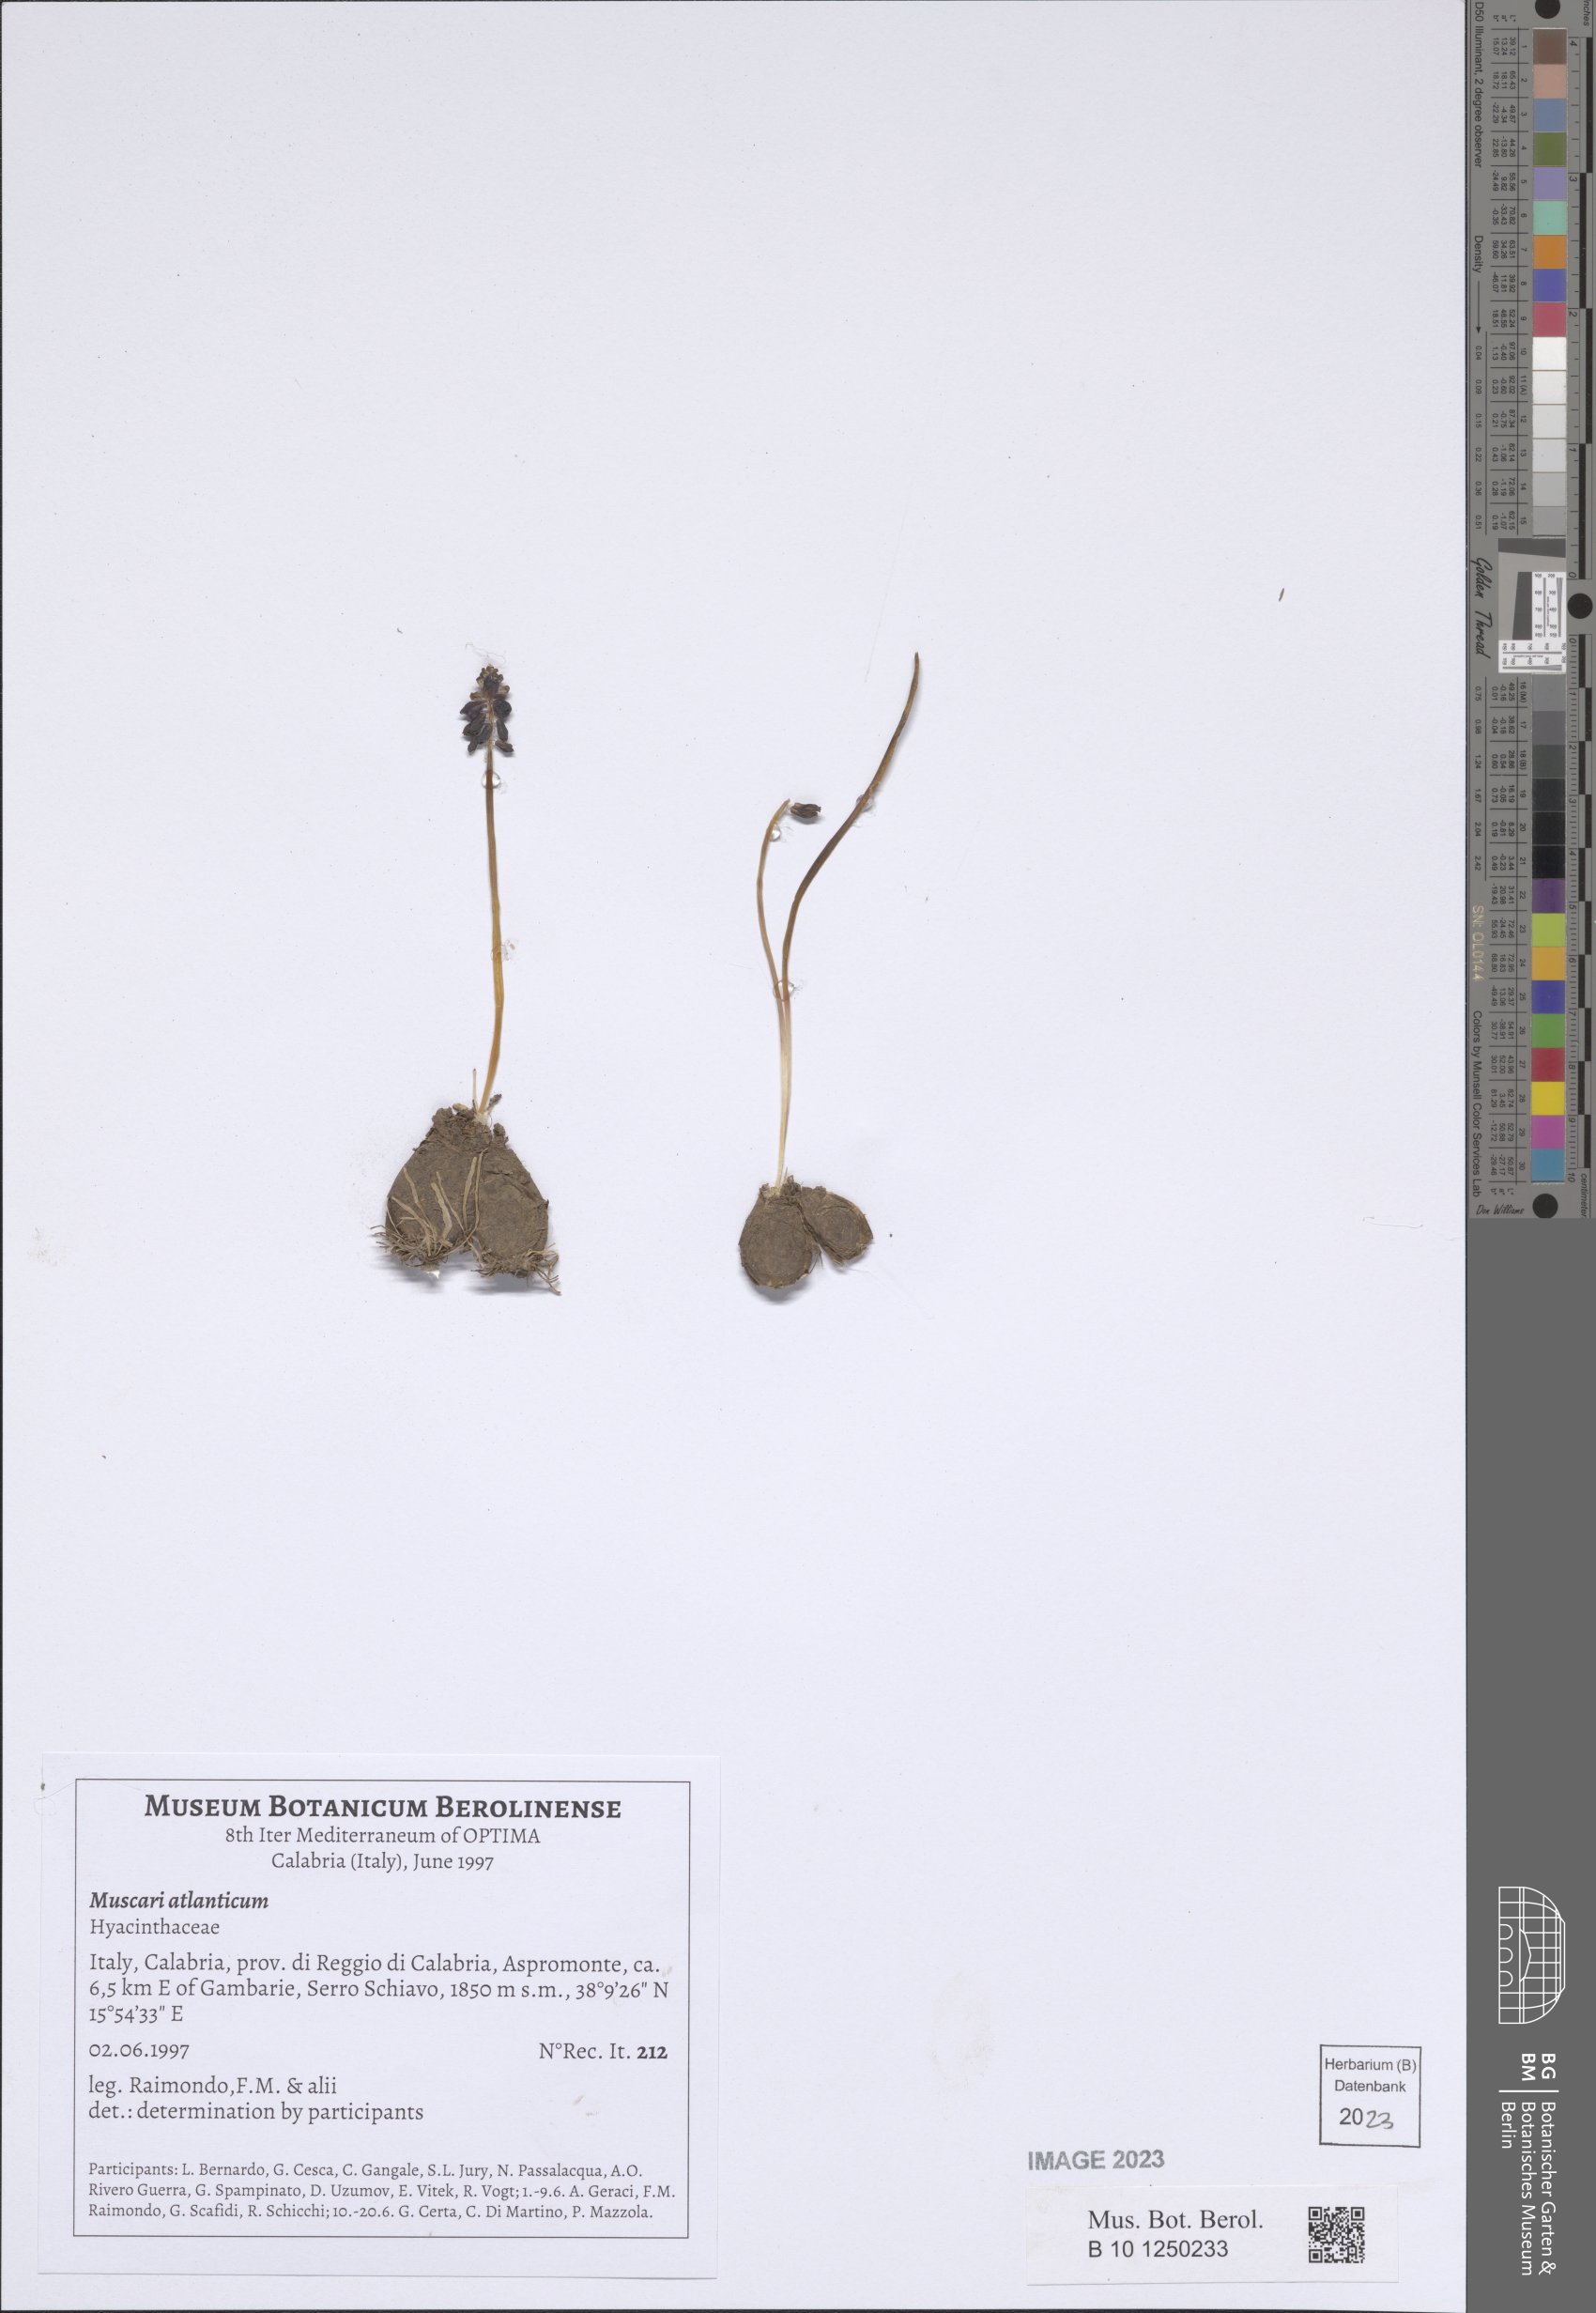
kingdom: Plantae
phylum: Tracheophyta
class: Liliopsida
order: Asparagales
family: Asparagaceae
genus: Muscari
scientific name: Muscari atlanticum
